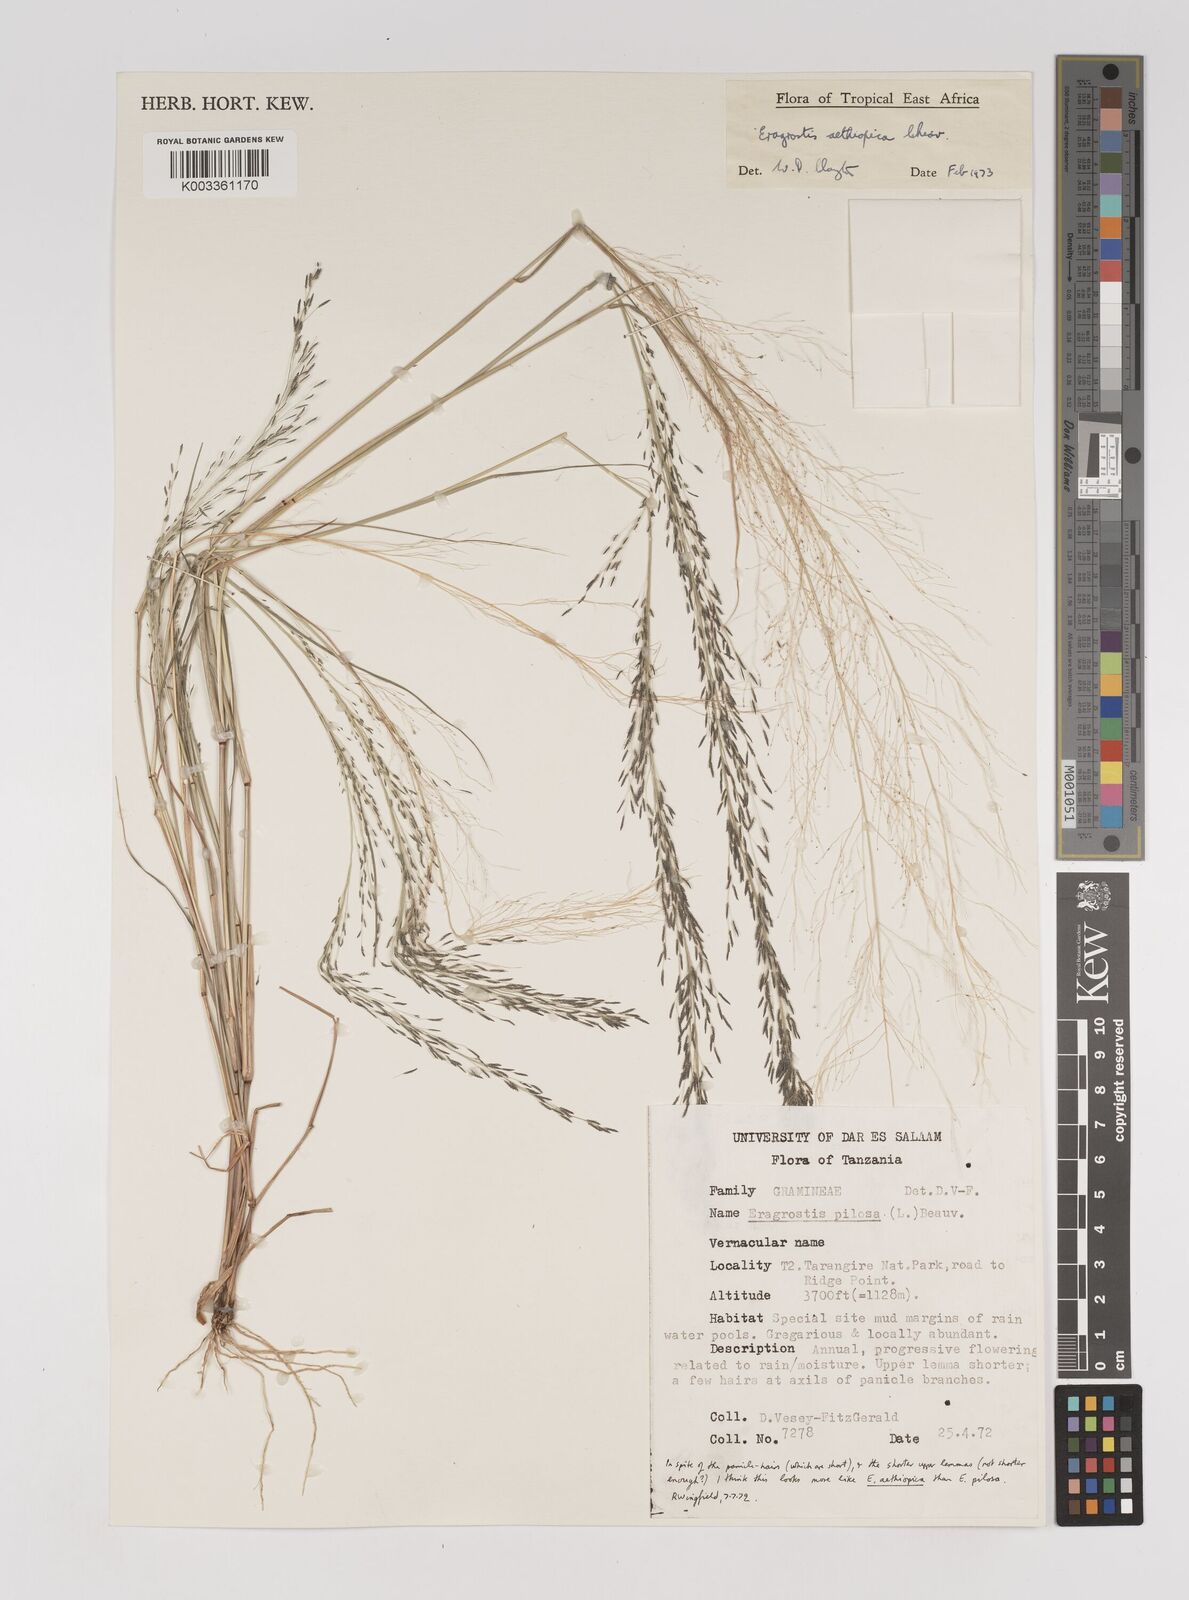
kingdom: Plantae
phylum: Tracheophyta
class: Liliopsida
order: Poales
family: Poaceae
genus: Eragrostis
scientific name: Eragrostis pilosa
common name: Indian lovegrass
